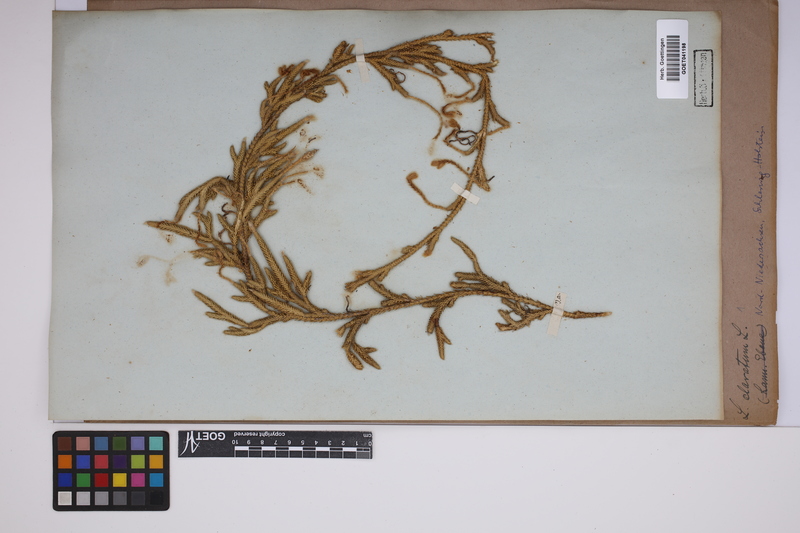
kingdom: Plantae
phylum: Tracheophyta
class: Lycopodiopsida
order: Lycopodiales
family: Lycopodiaceae
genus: Lycopodium
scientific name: Lycopodium clavatum
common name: Stag's-horn clubmoss
